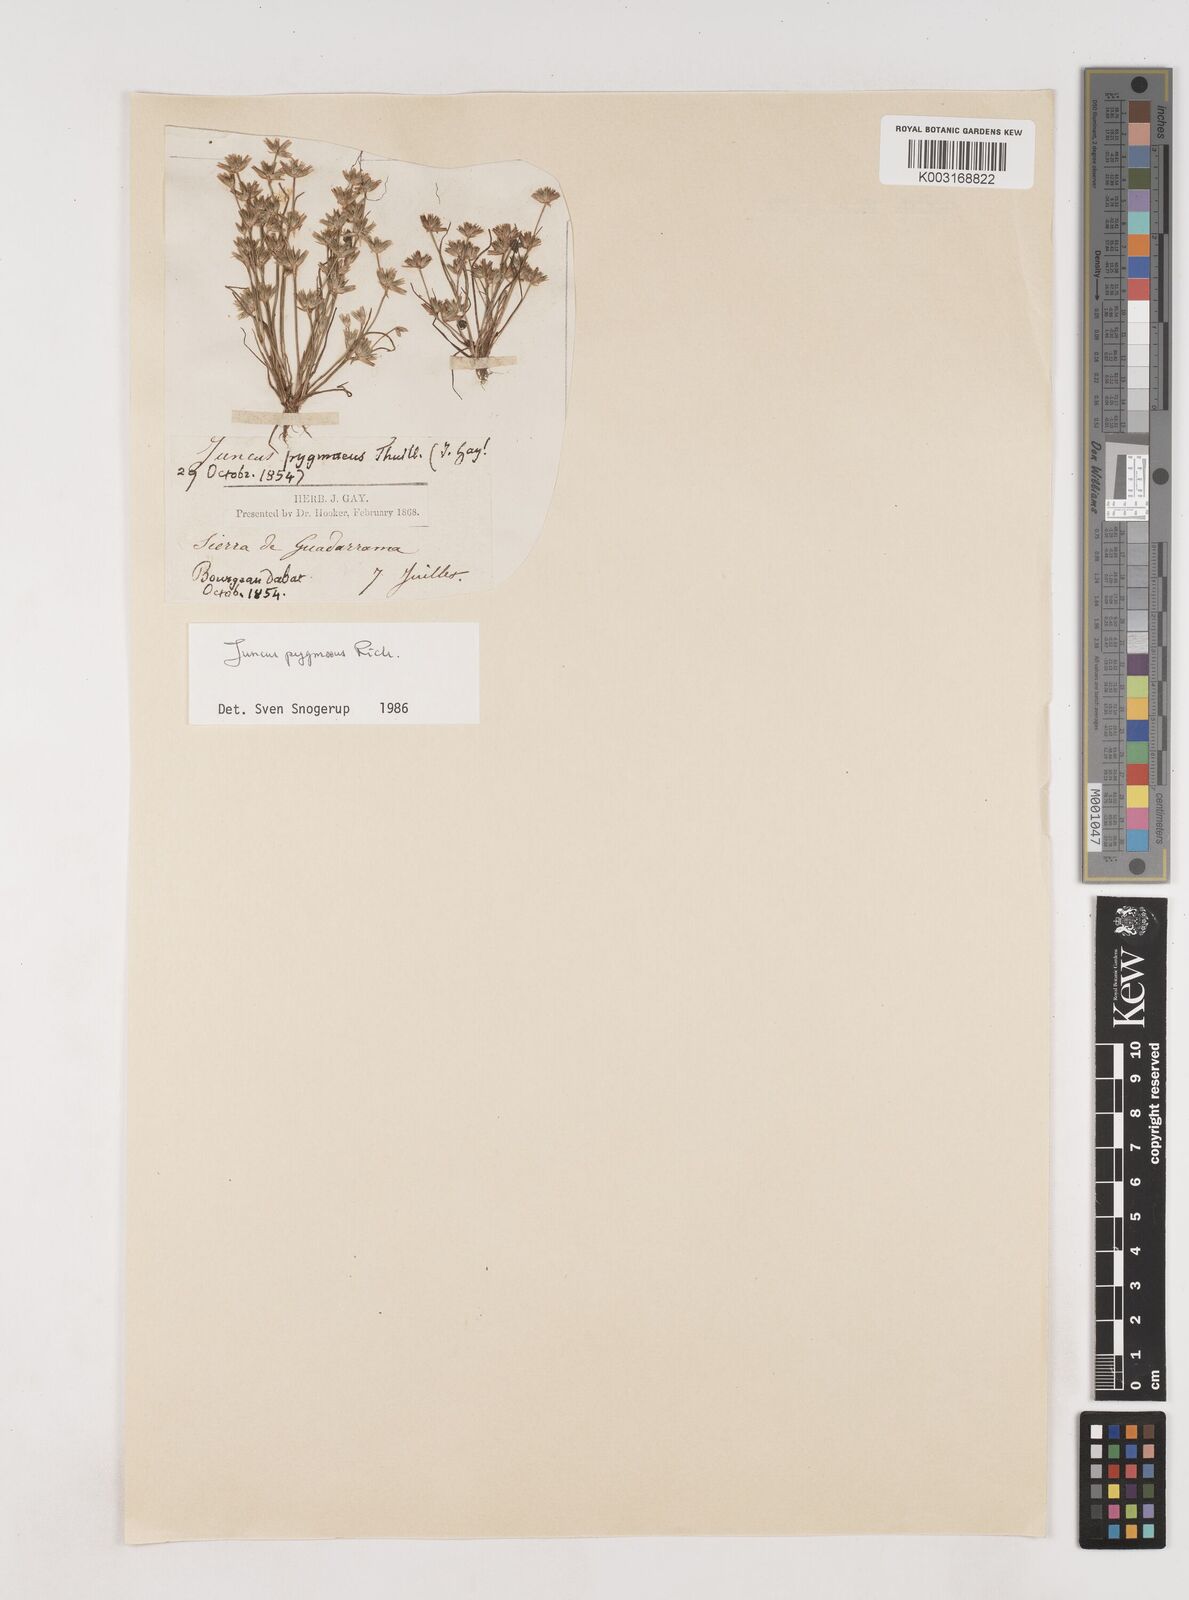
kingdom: Plantae
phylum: Tracheophyta
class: Liliopsida
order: Poales
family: Juncaceae
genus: Juncus
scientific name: Juncus pygmaeus
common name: Pigmy rush
